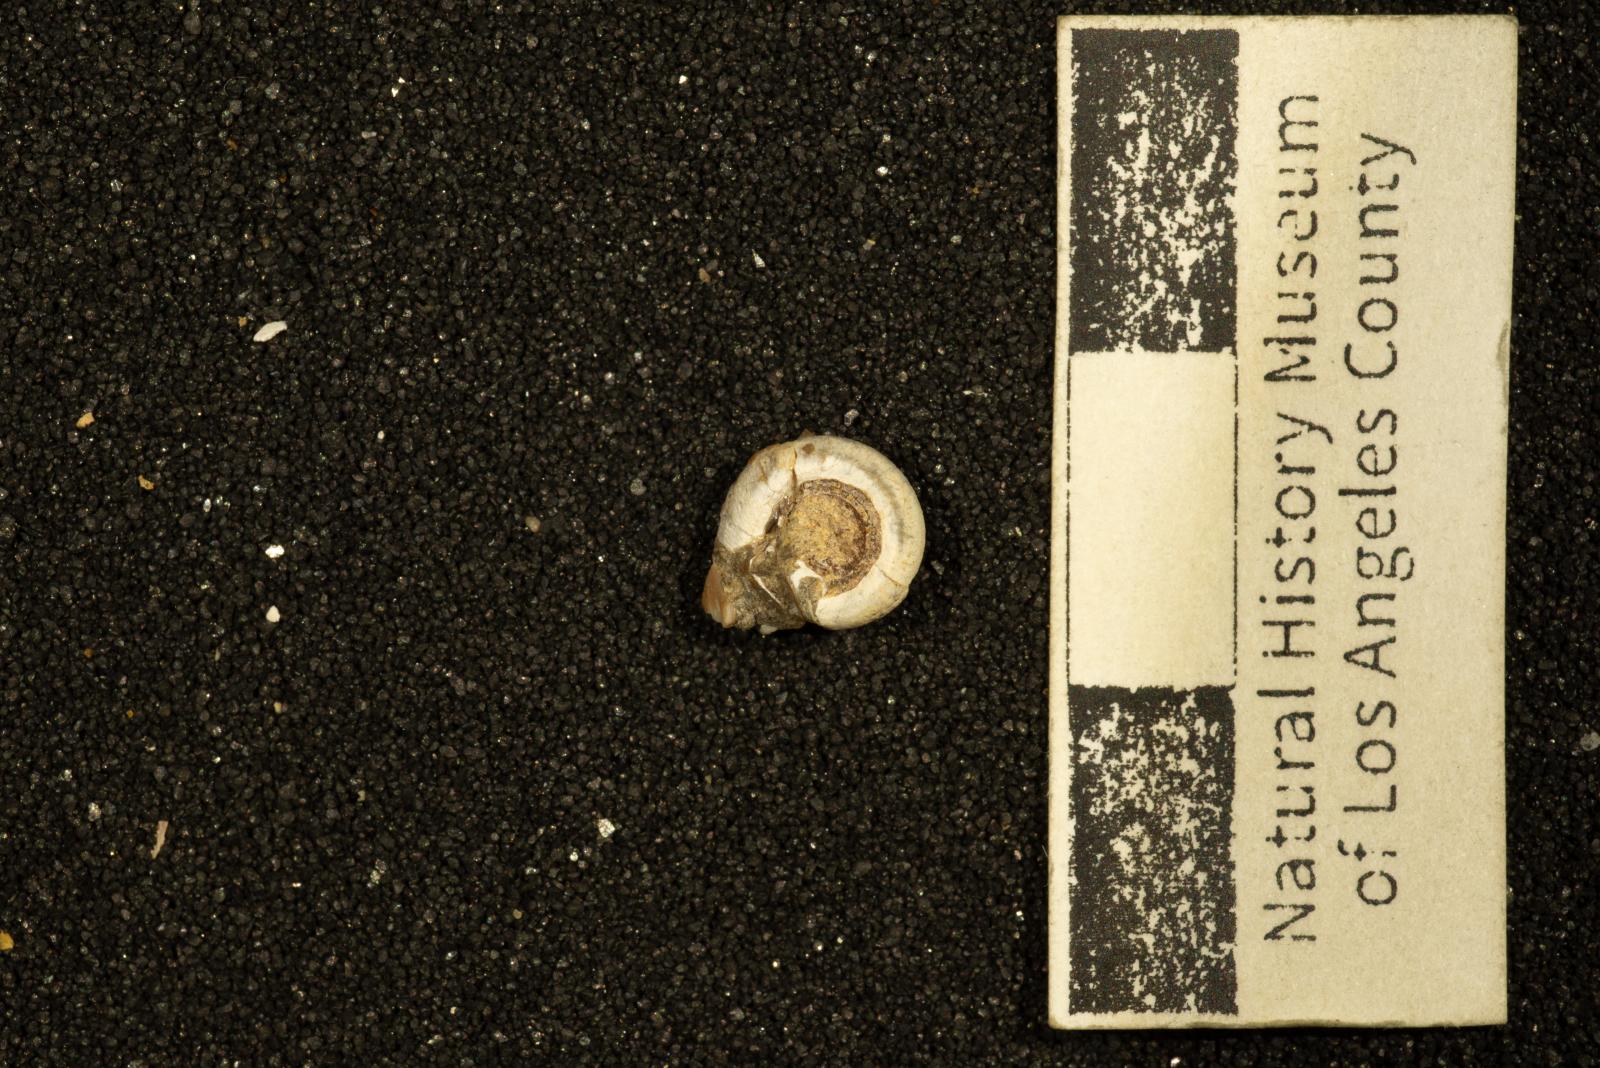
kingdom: Animalia
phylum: Annelida
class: Polychaeta
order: Sabellida
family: Serpulidae
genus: Rotularia
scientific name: Rotularia
